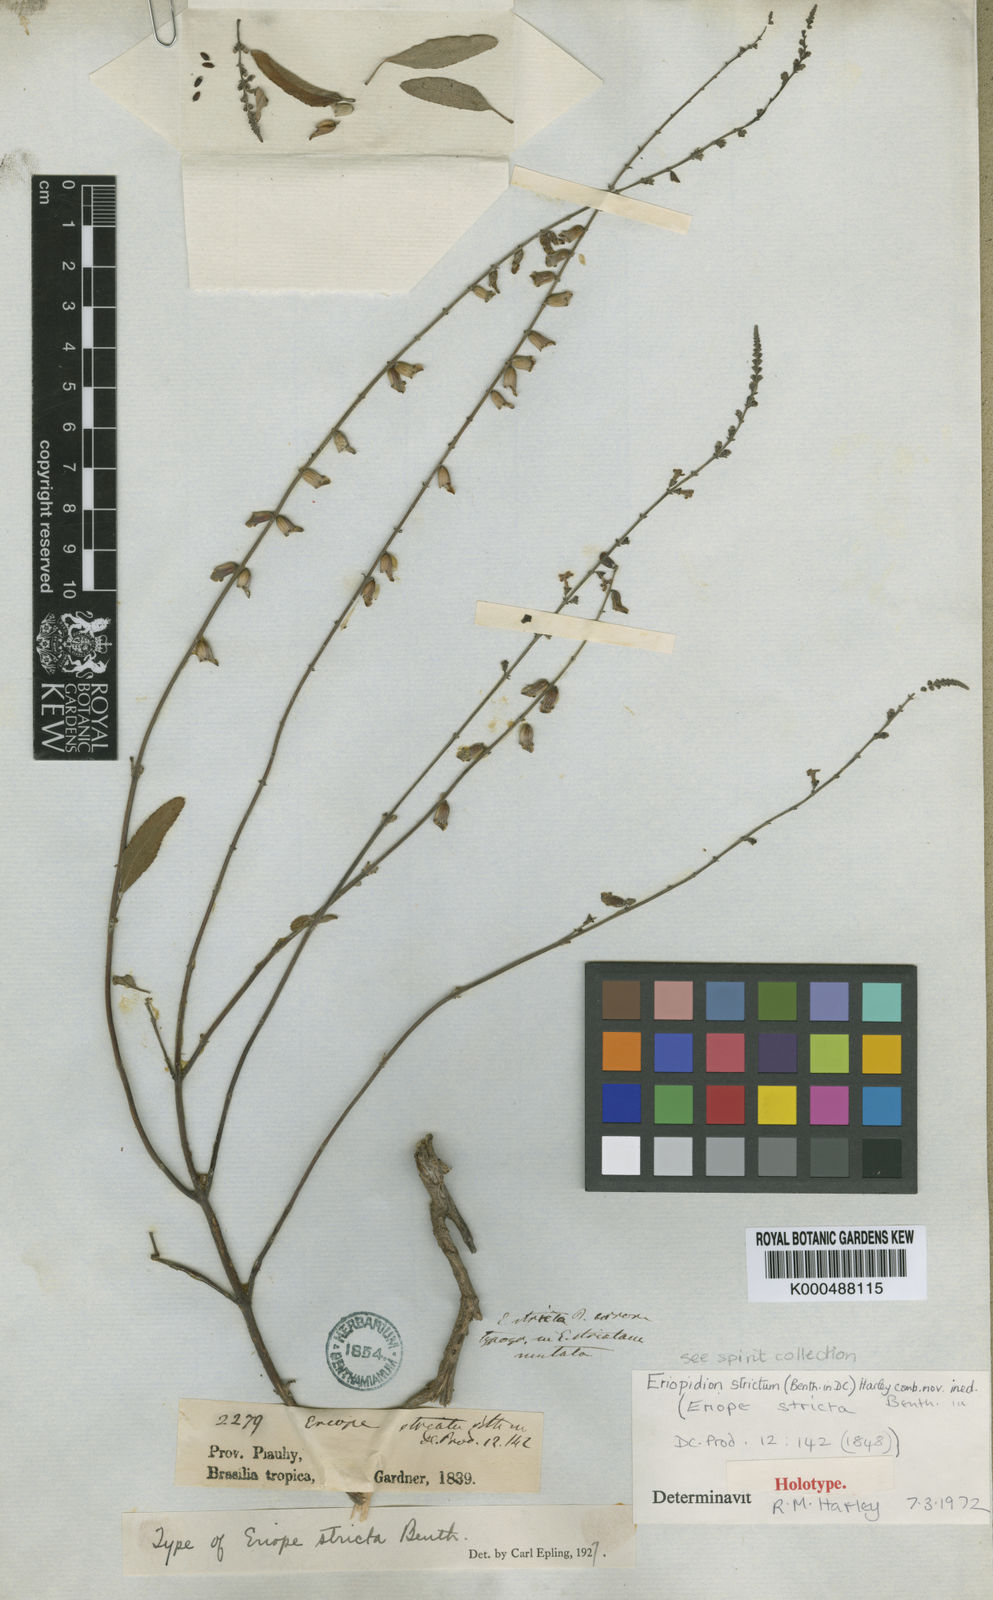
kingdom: Plantae
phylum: Tracheophyta
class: Magnoliopsida
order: Lamiales
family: Lamiaceae
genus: Eriopidion
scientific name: Eriopidion strictum
